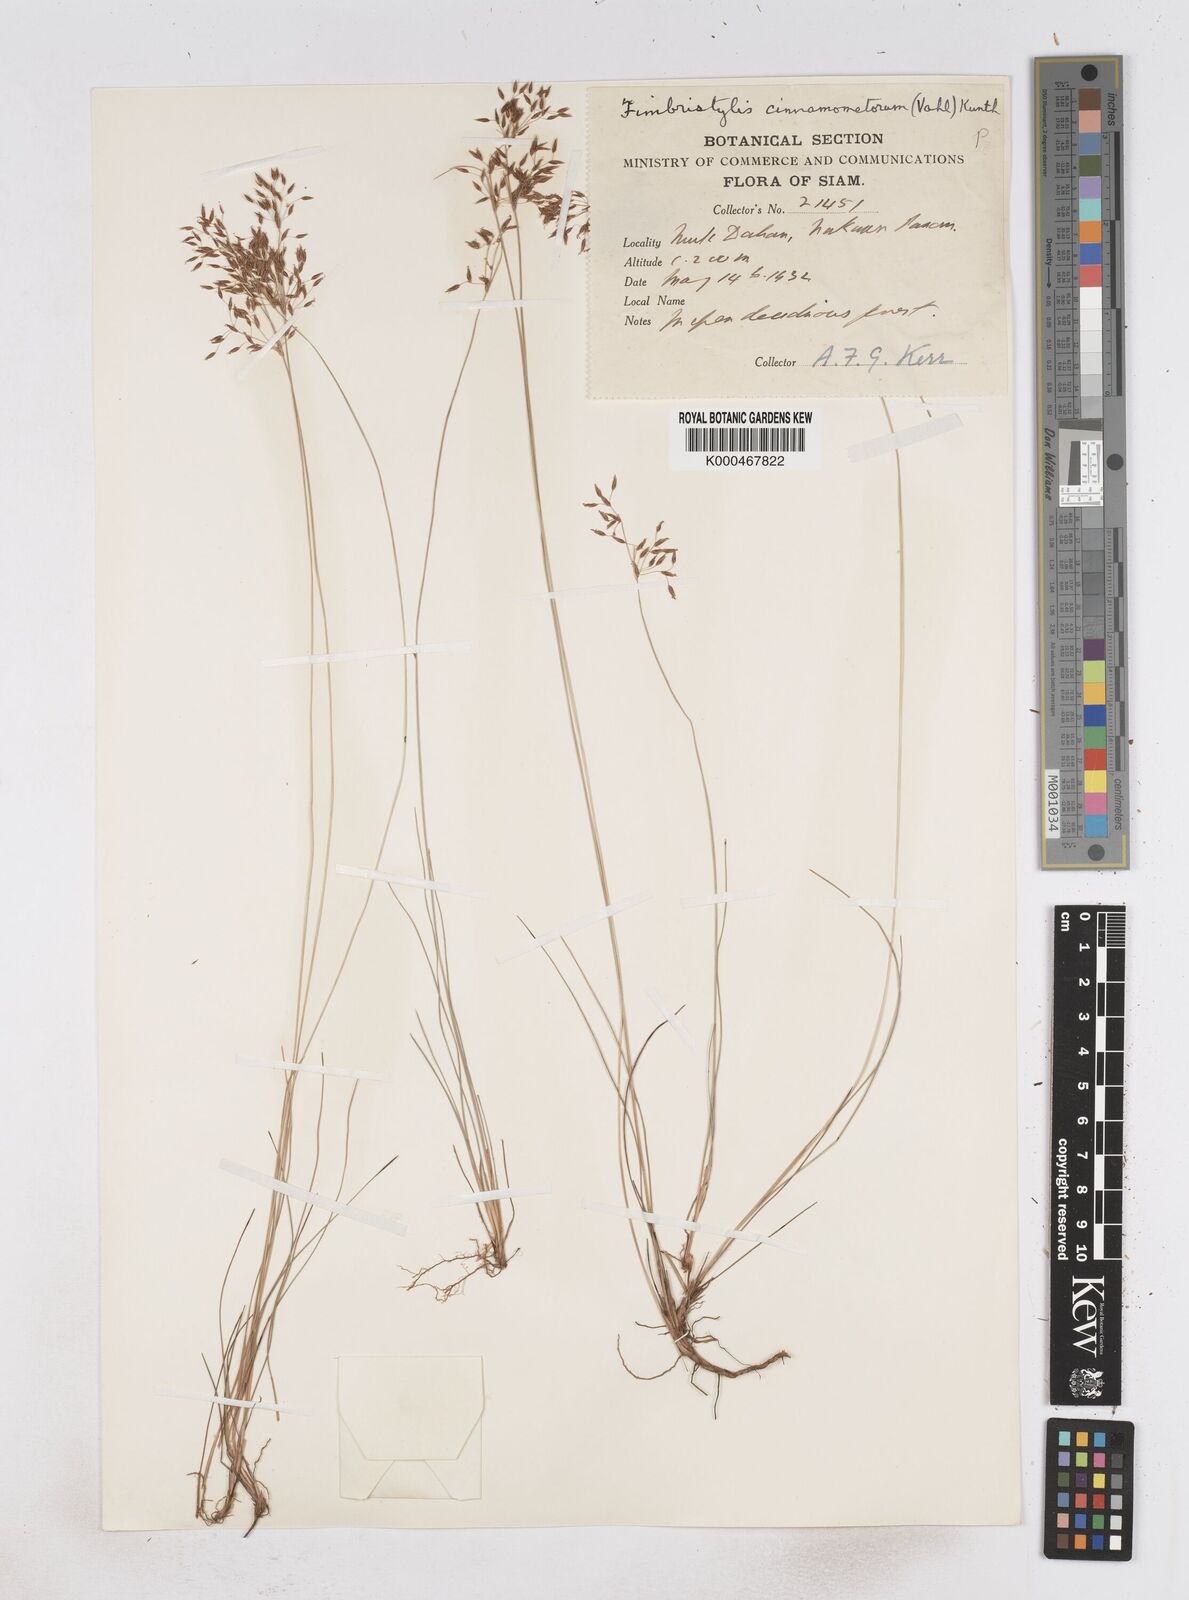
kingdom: Plantae
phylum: Tracheophyta
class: Liliopsida
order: Poales
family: Cyperaceae
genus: Fimbristylis
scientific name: Fimbristylis cinnamometorum
